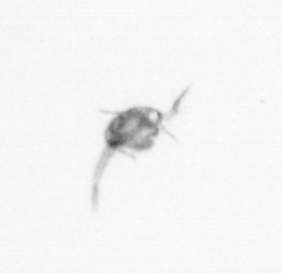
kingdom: Animalia
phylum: Arthropoda
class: Copepoda
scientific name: Copepoda
